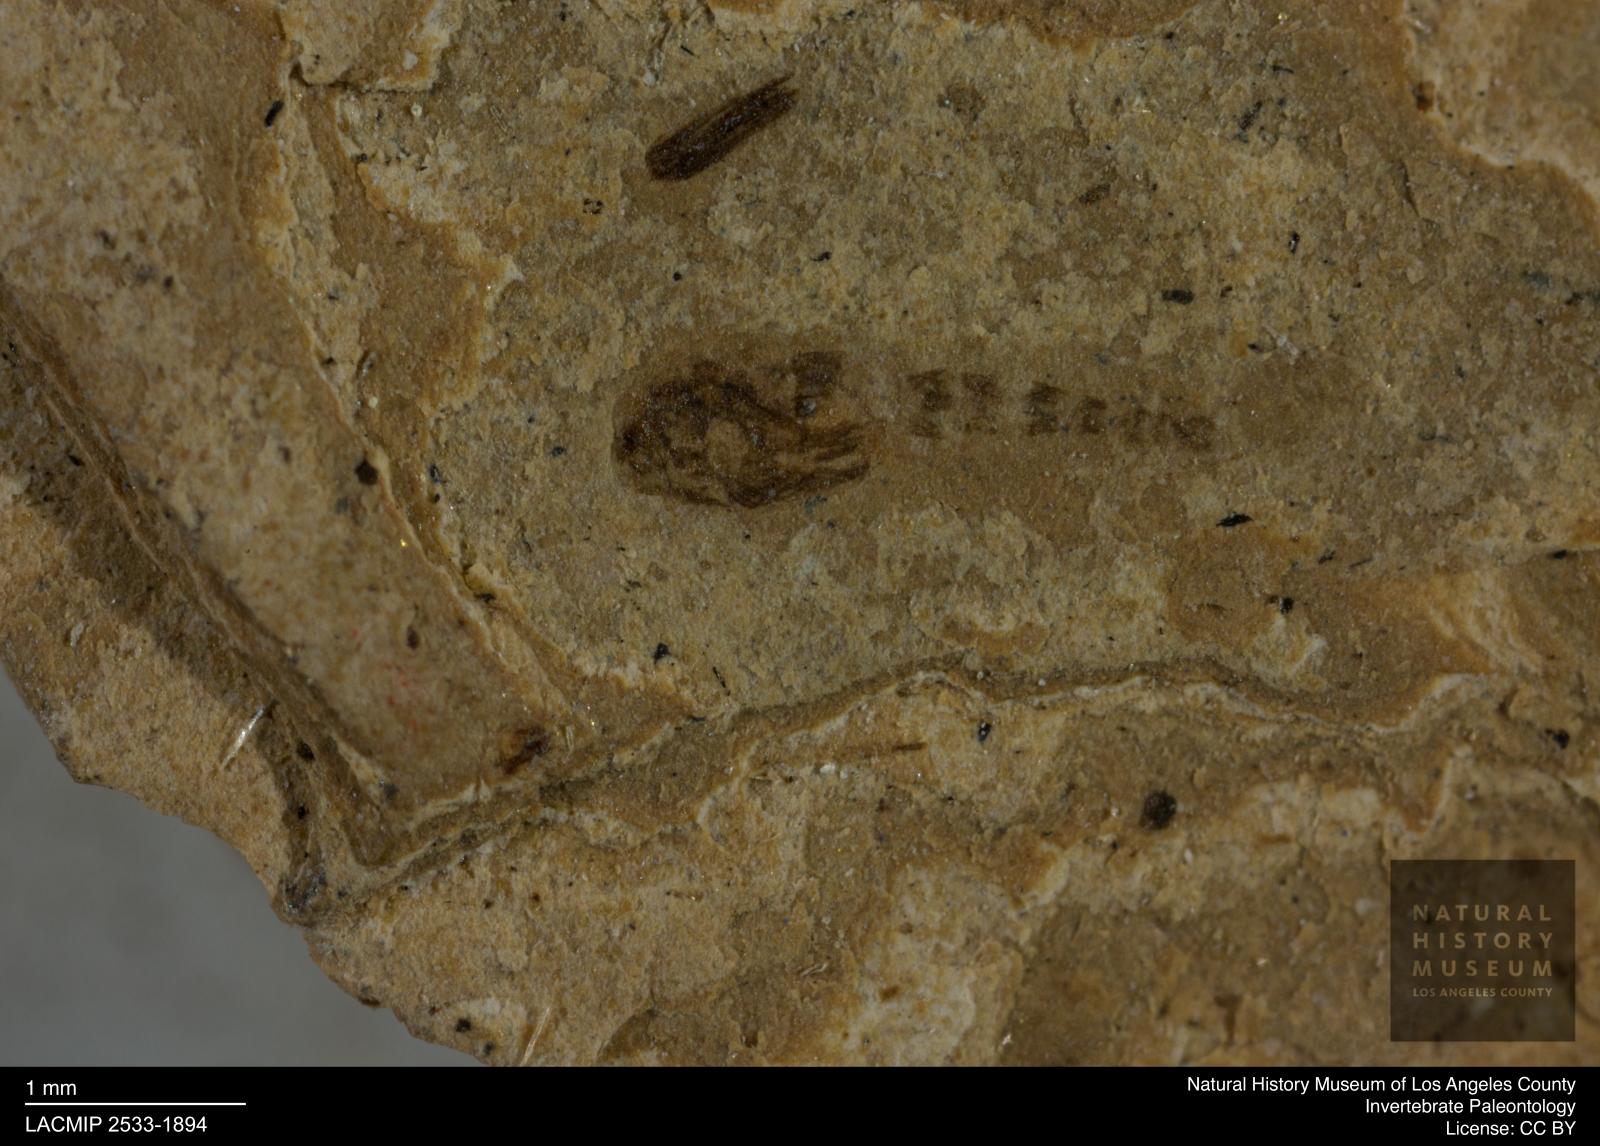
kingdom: Animalia
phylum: Arthropoda
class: Insecta
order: Diptera
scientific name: Diptera
